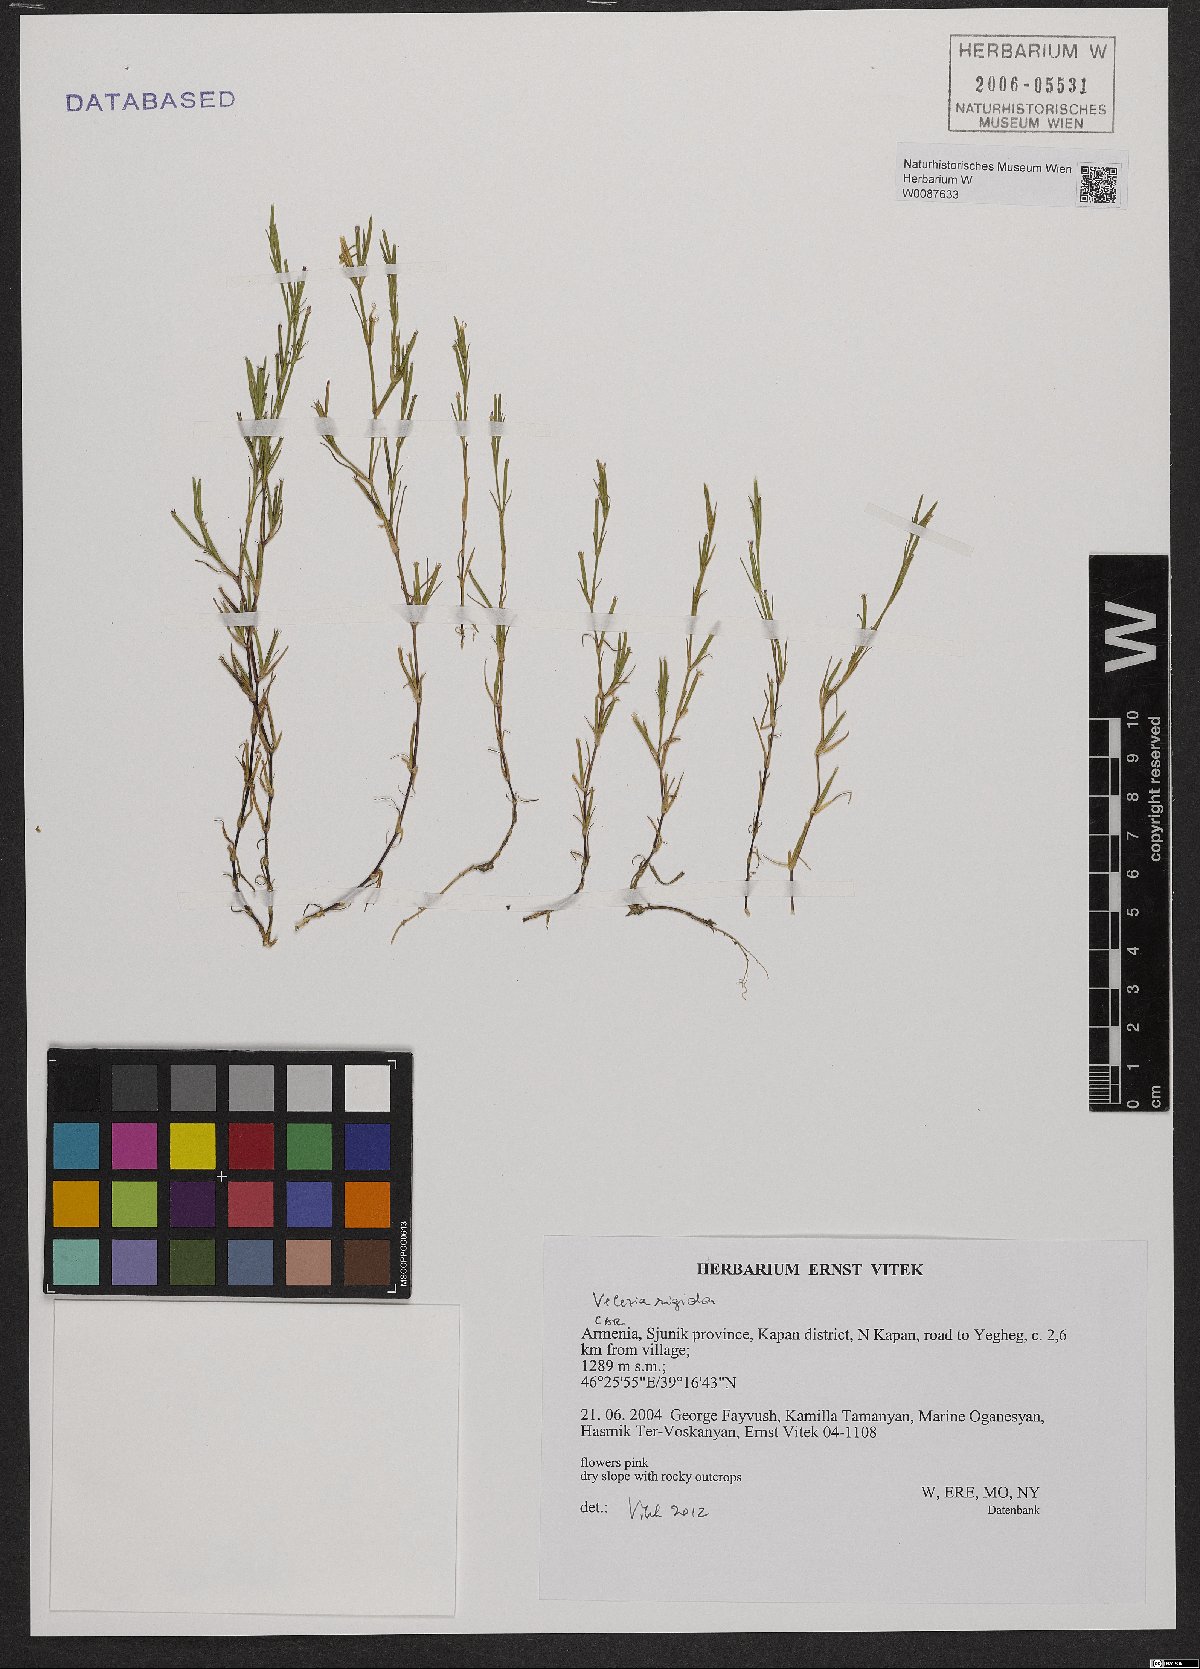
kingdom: Plantae
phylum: Tracheophyta
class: Magnoliopsida
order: Caryophyllales
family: Caryophyllaceae
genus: Dianthus
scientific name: Dianthus nudiflorus
